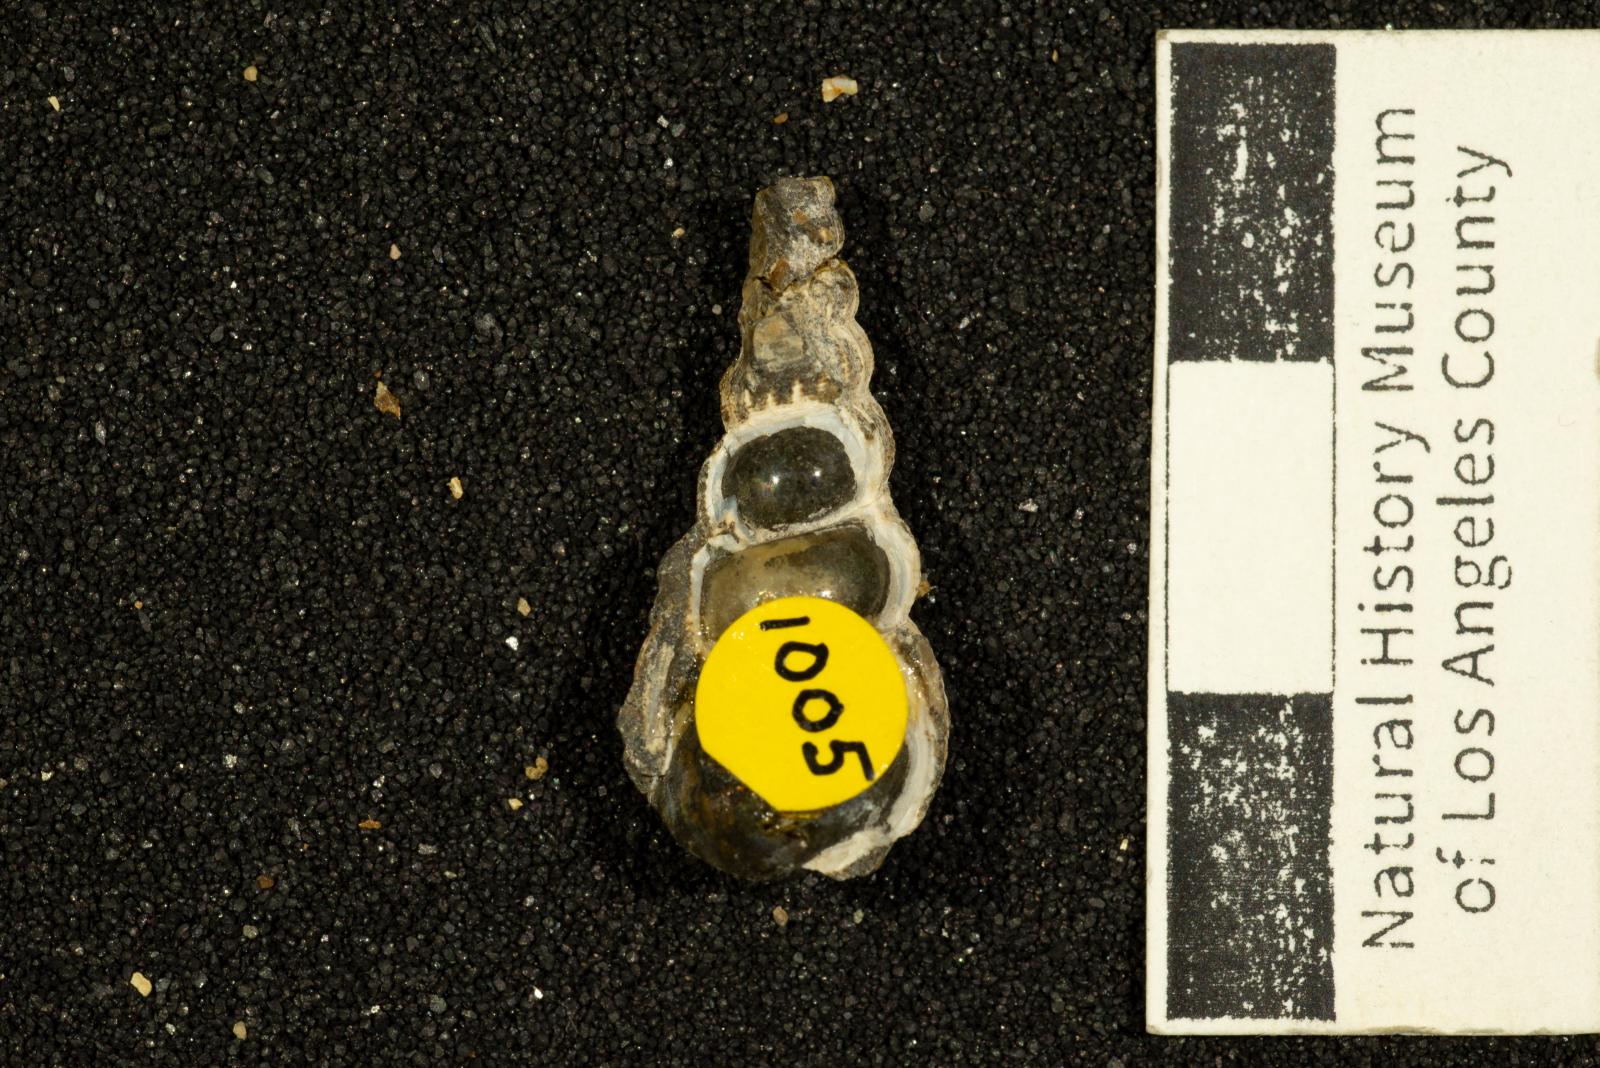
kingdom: Animalia
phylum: Mollusca
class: Gastropoda
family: Epitoniidae
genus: Amaea
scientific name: Amaea cerva
